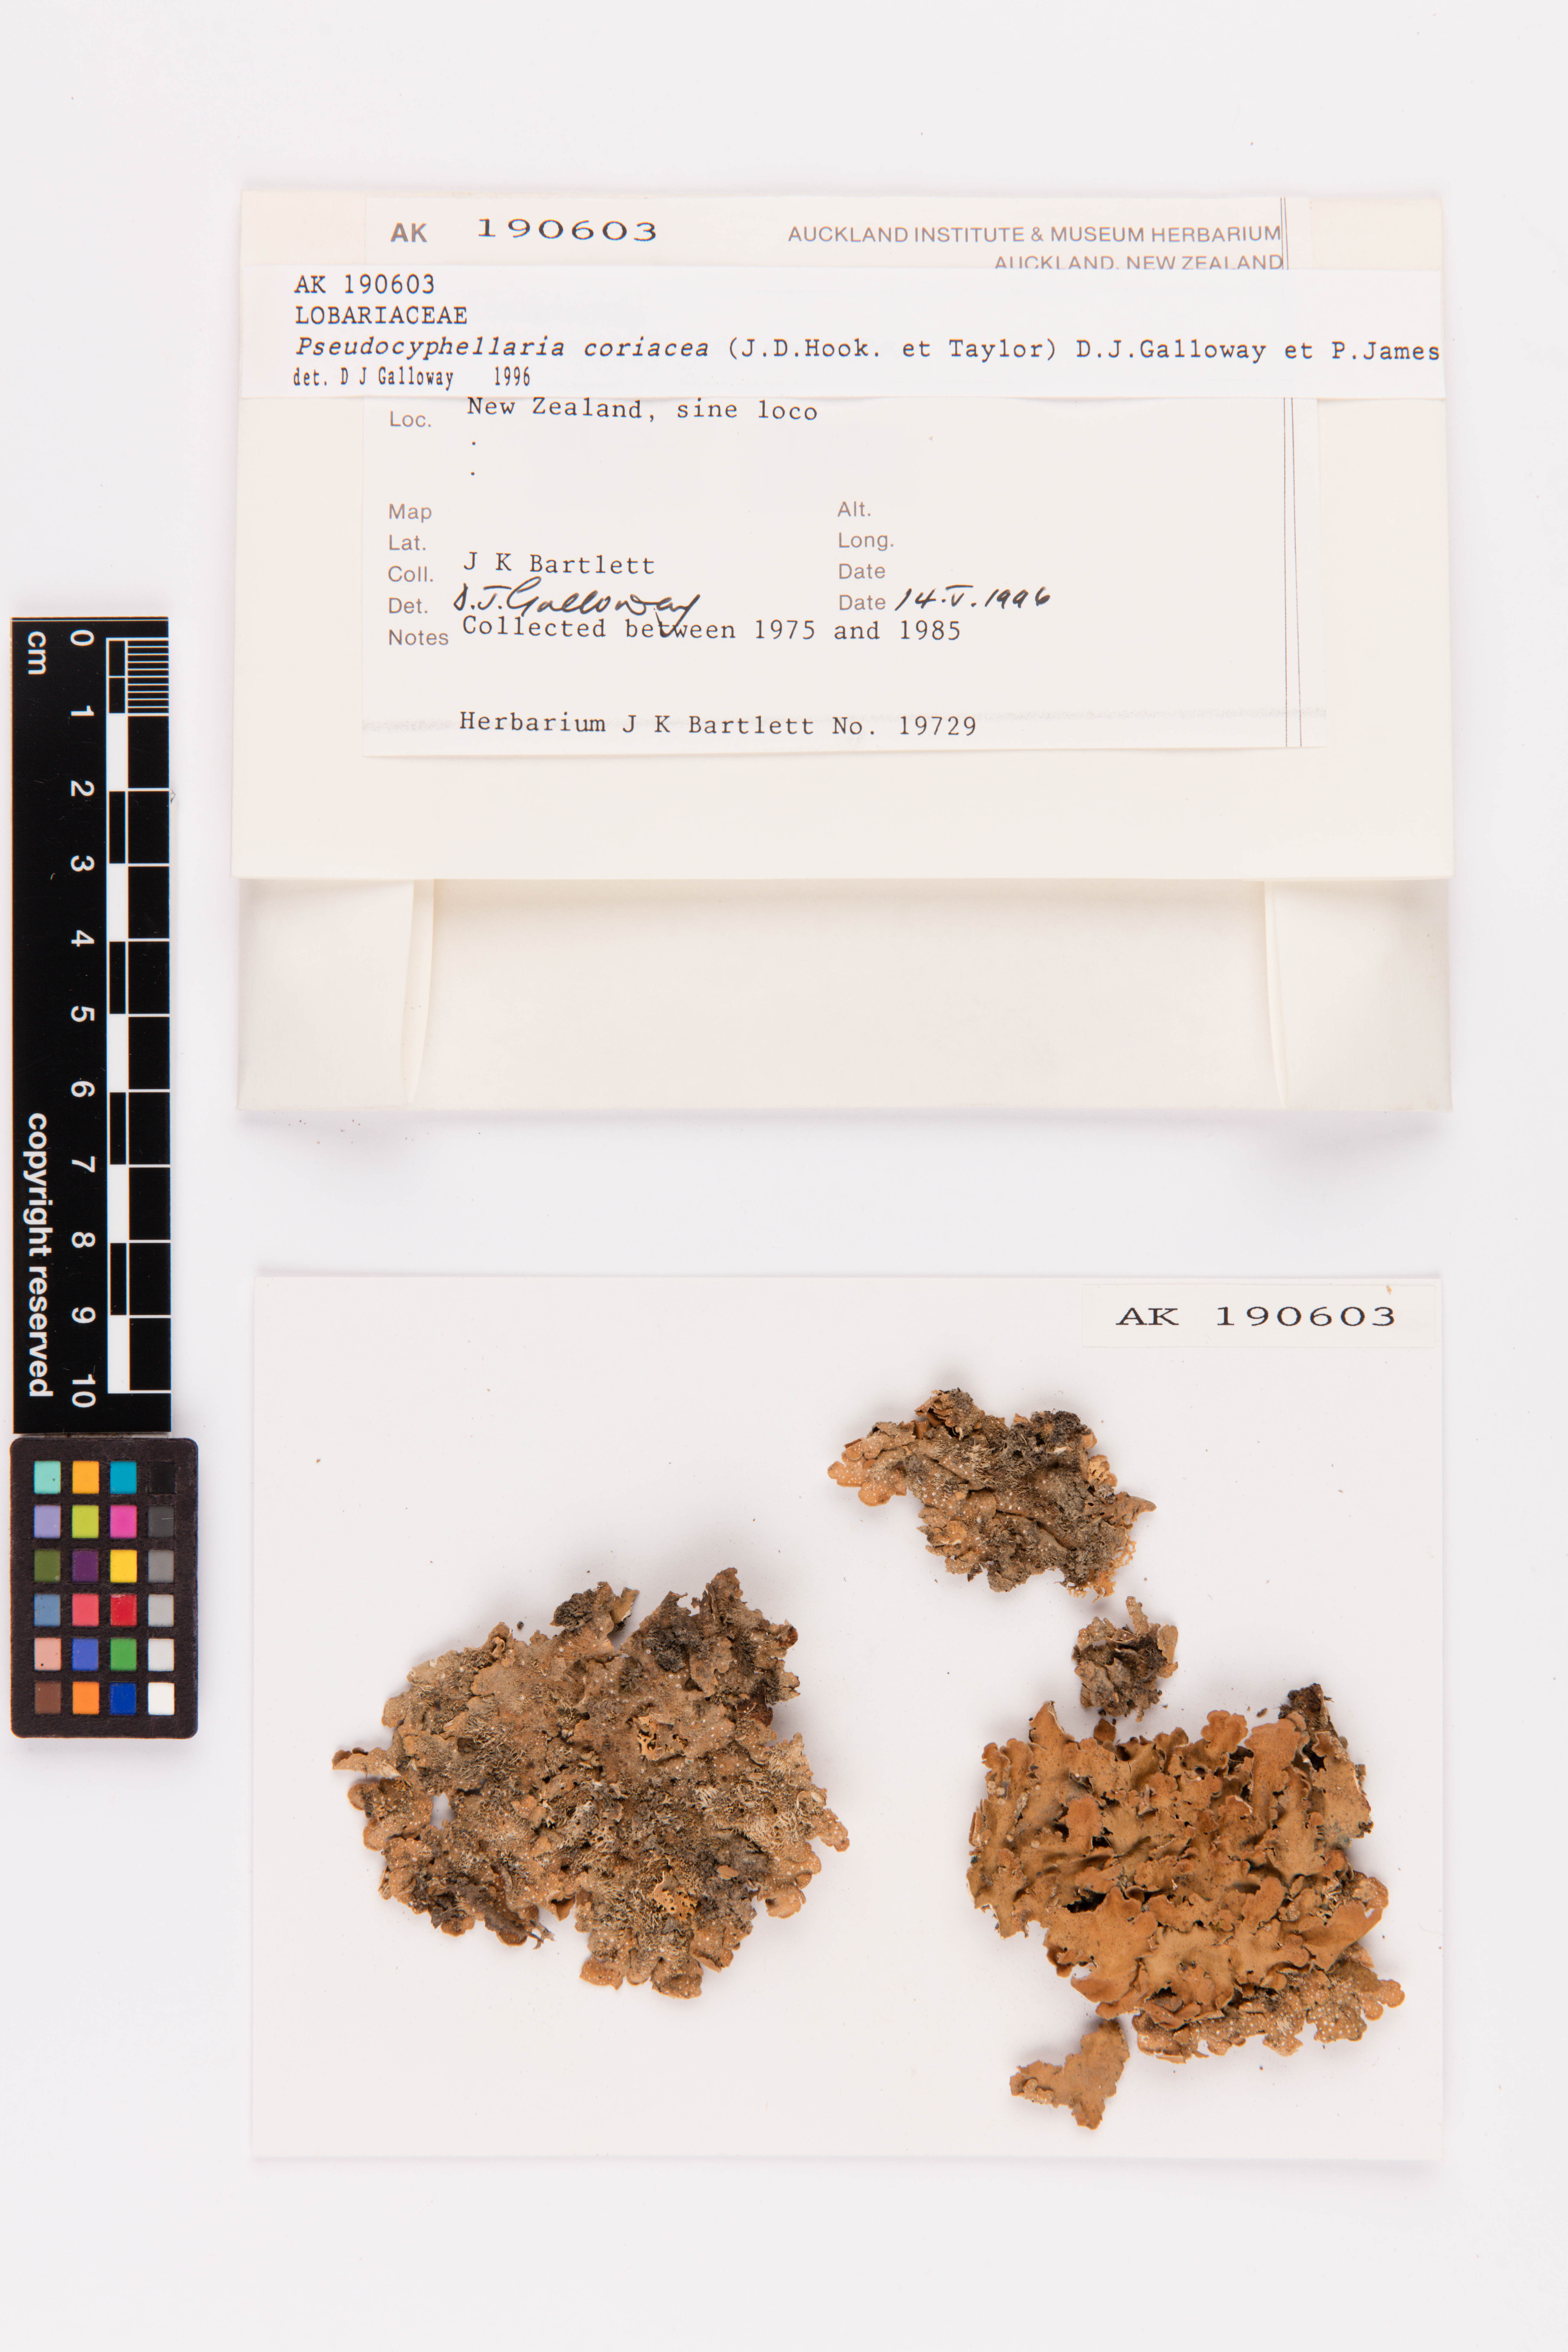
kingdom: Fungi
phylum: Ascomycota
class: Lecanoromycetes
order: Peltigerales
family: Lobariaceae
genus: Pseudocyphellaria
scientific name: Pseudocyphellaria coriacea
